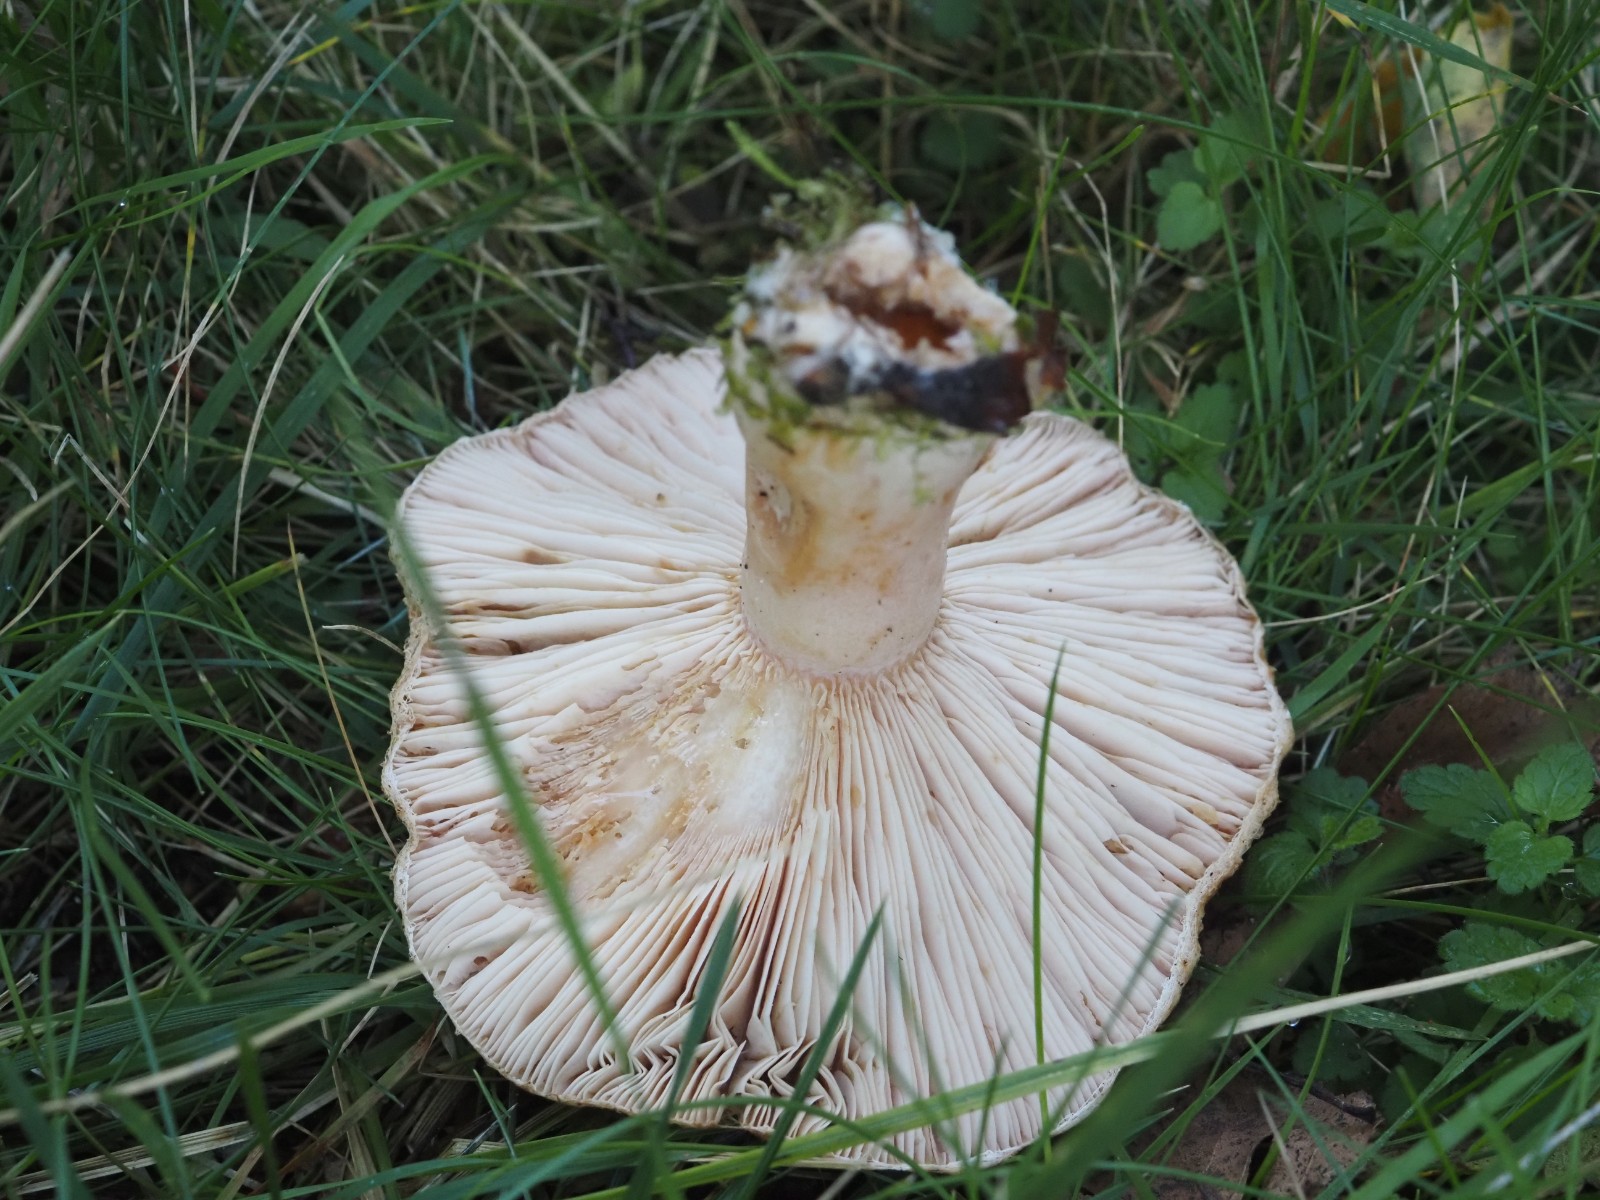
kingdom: Fungi
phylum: Basidiomycota
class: Agaricomycetes
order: Russulales
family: Russulaceae
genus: Lactarius
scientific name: Lactarius torminosus
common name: skægget mælkehat
